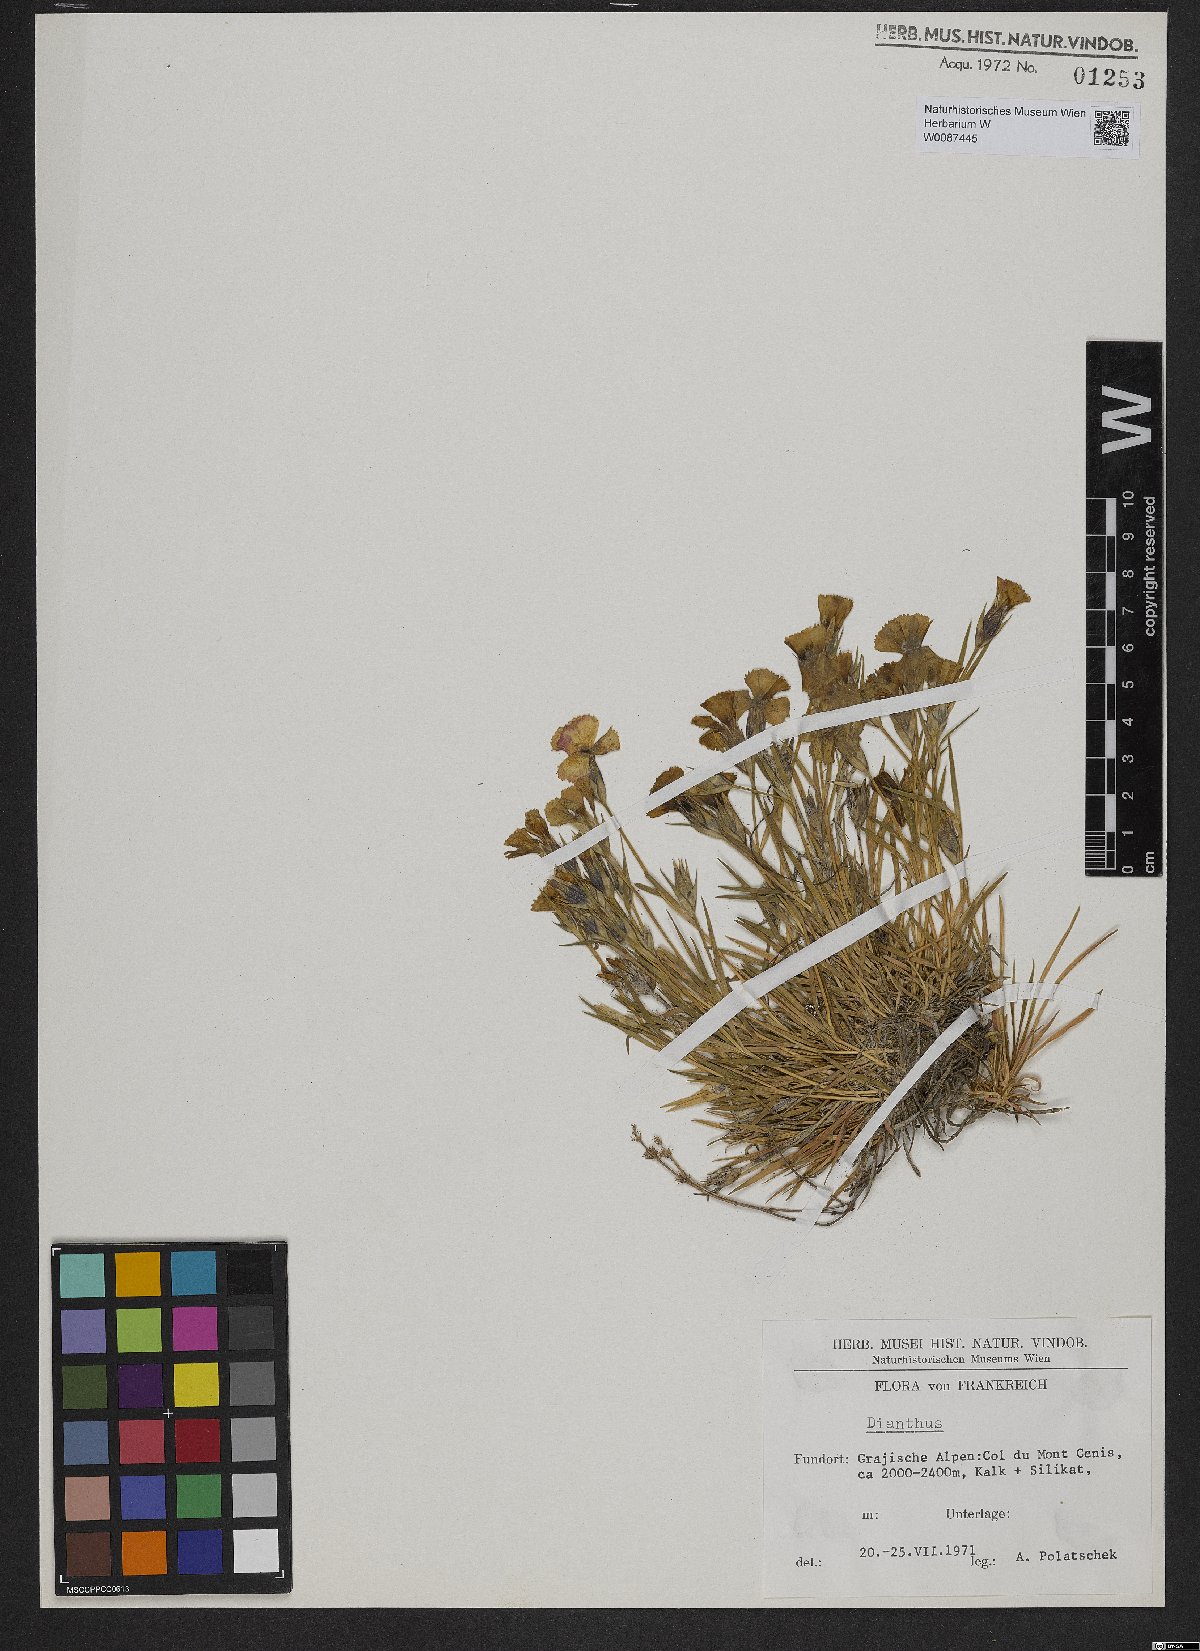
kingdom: Plantae
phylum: Tracheophyta
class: Magnoliopsida
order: Caryophyllales
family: Caryophyllaceae
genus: Dianthus
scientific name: Dianthus
